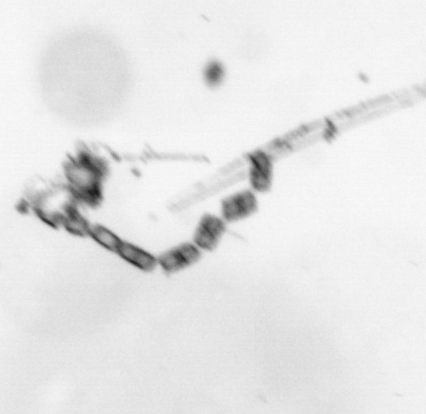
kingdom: Chromista
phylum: Ochrophyta
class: Bacillariophyceae
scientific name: Bacillariophyceae
